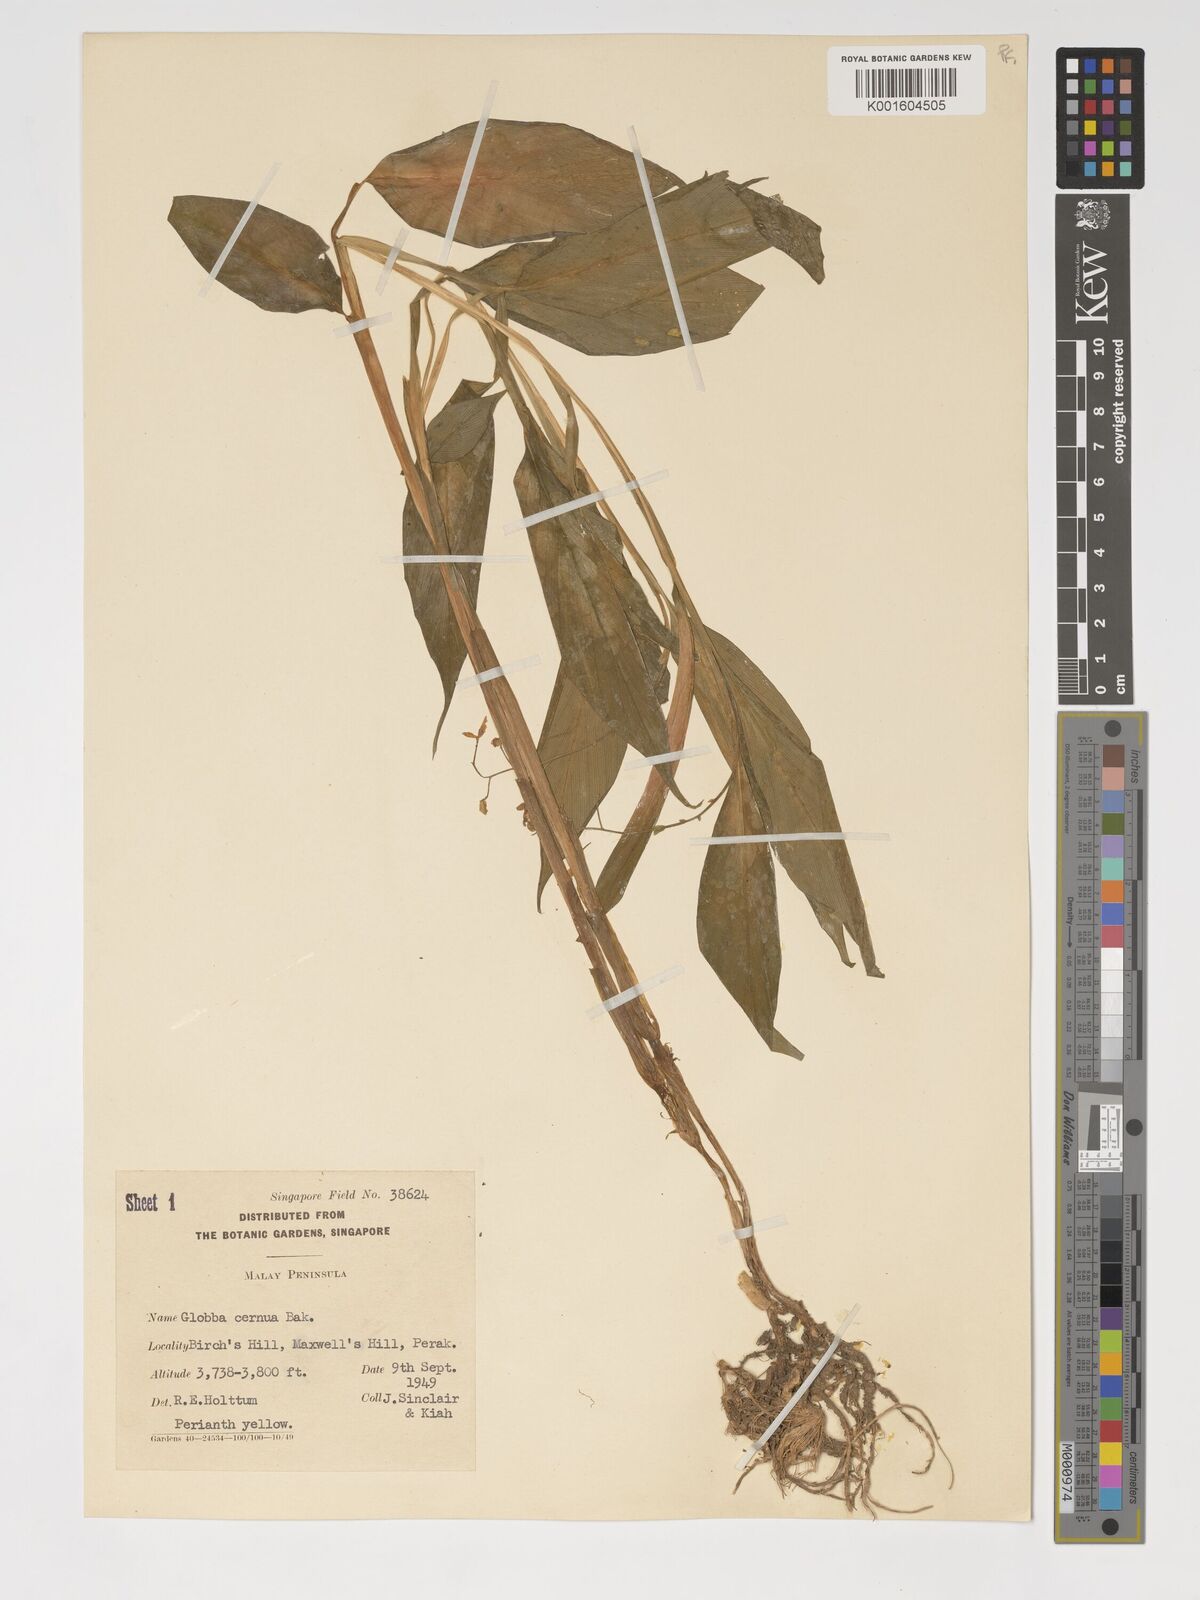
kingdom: Plantae
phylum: Tracheophyta
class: Liliopsida
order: Zingiberales
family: Zingiberaceae
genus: Globba
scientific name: Globba cernua
